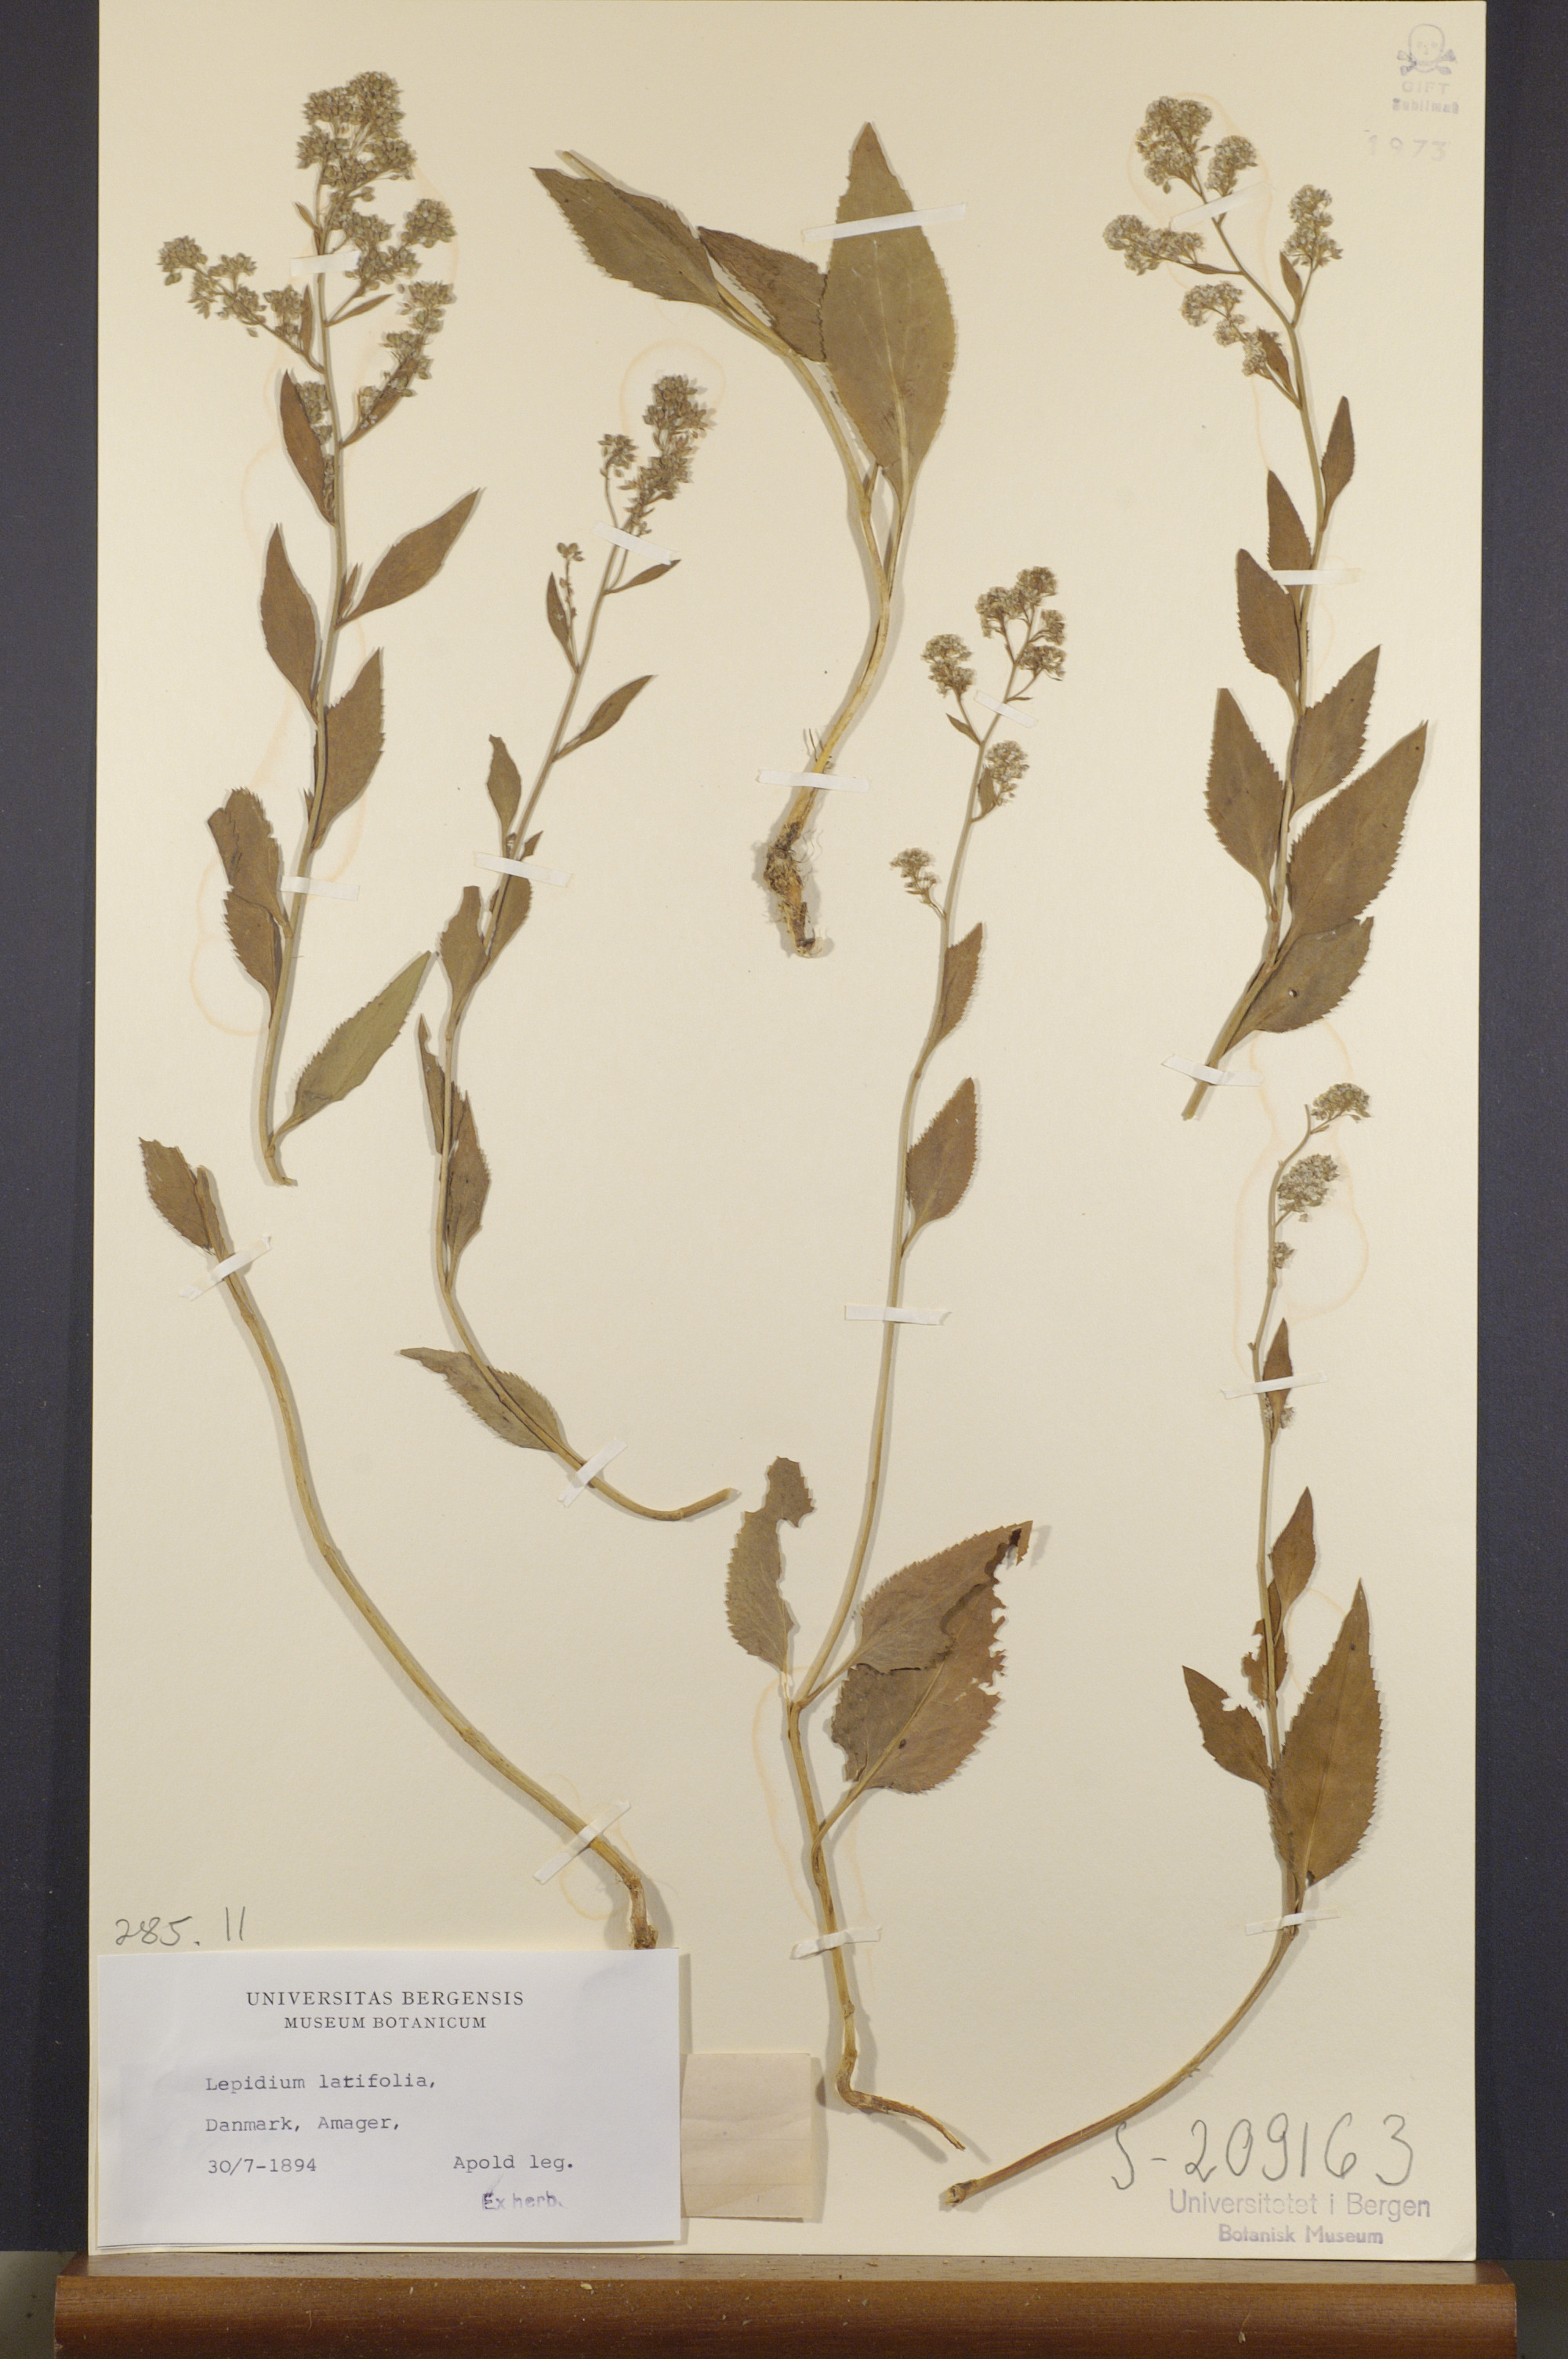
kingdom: Plantae
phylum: Tracheophyta
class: Magnoliopsida
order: Brassicales
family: Brassicaceae
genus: Lepidium
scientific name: Lepidium latifolium
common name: Dittander
